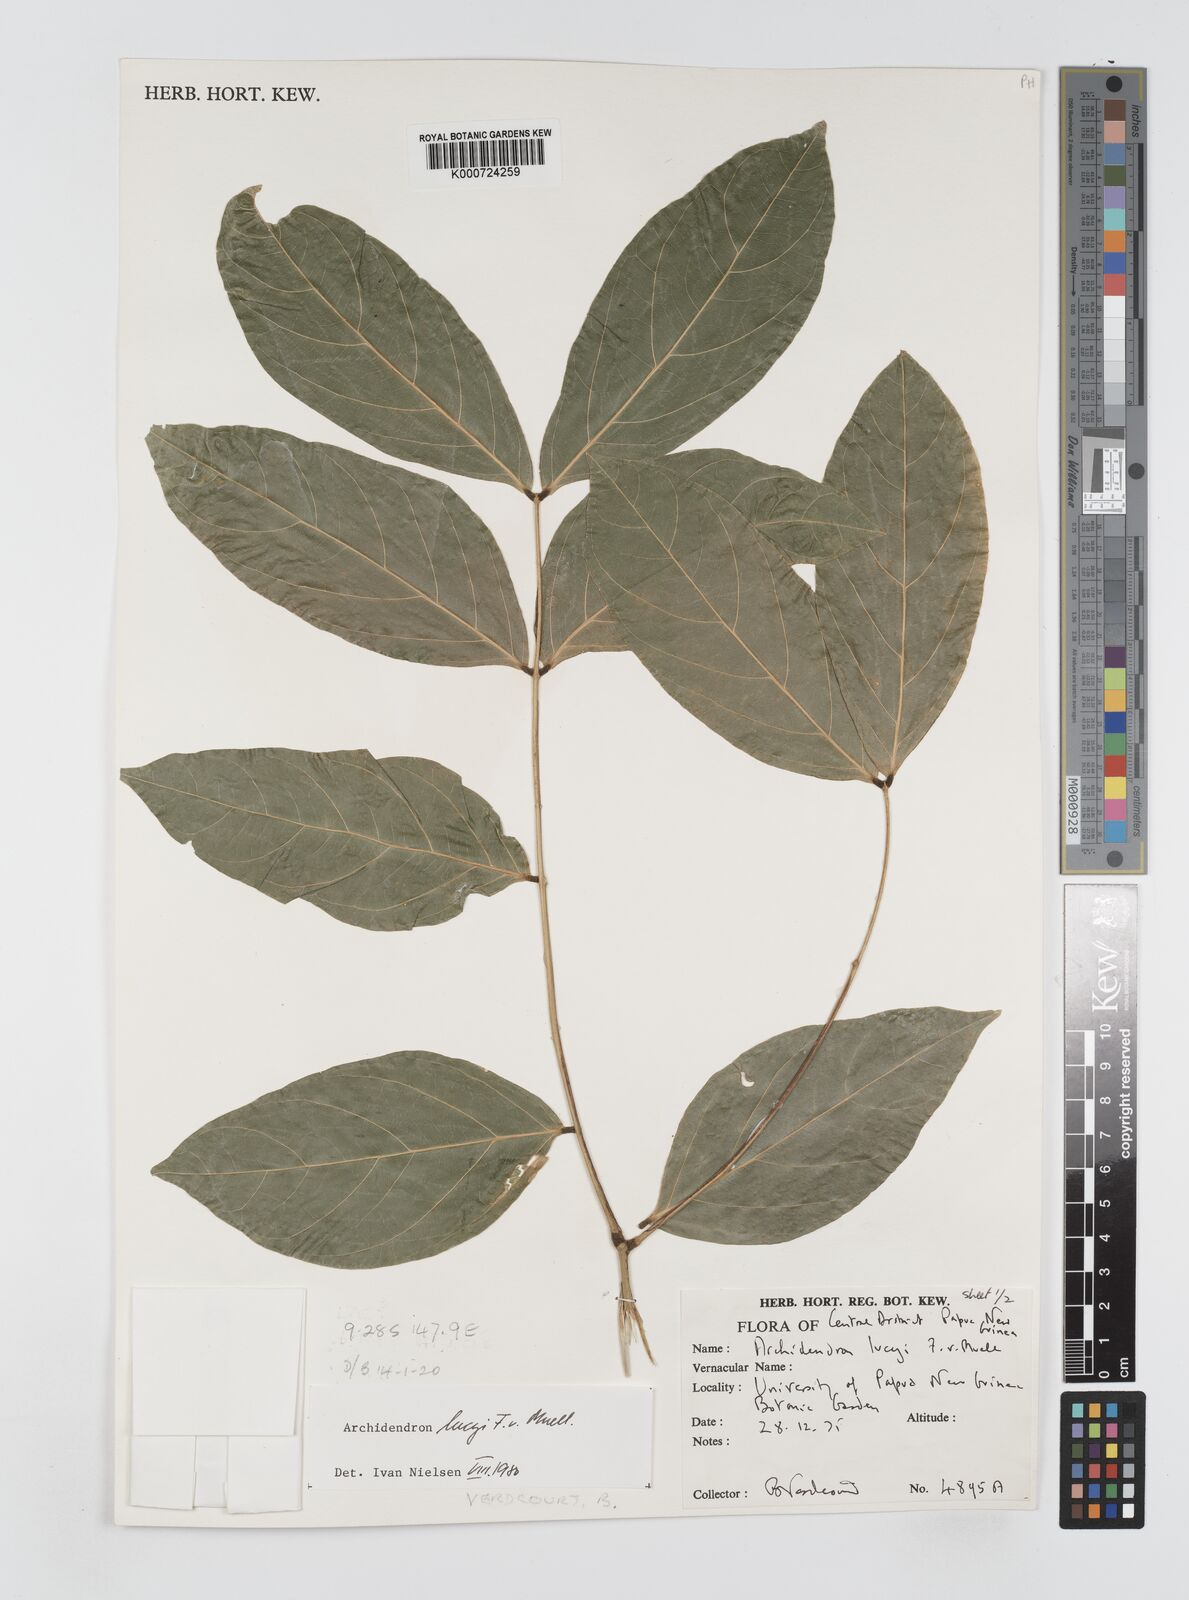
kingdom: Plantae
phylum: Tracheophyta
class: Magnoliopsida
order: Fabales
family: Fabaceae
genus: Archidendron
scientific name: Archidendron lucyi
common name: Scarlet bean
